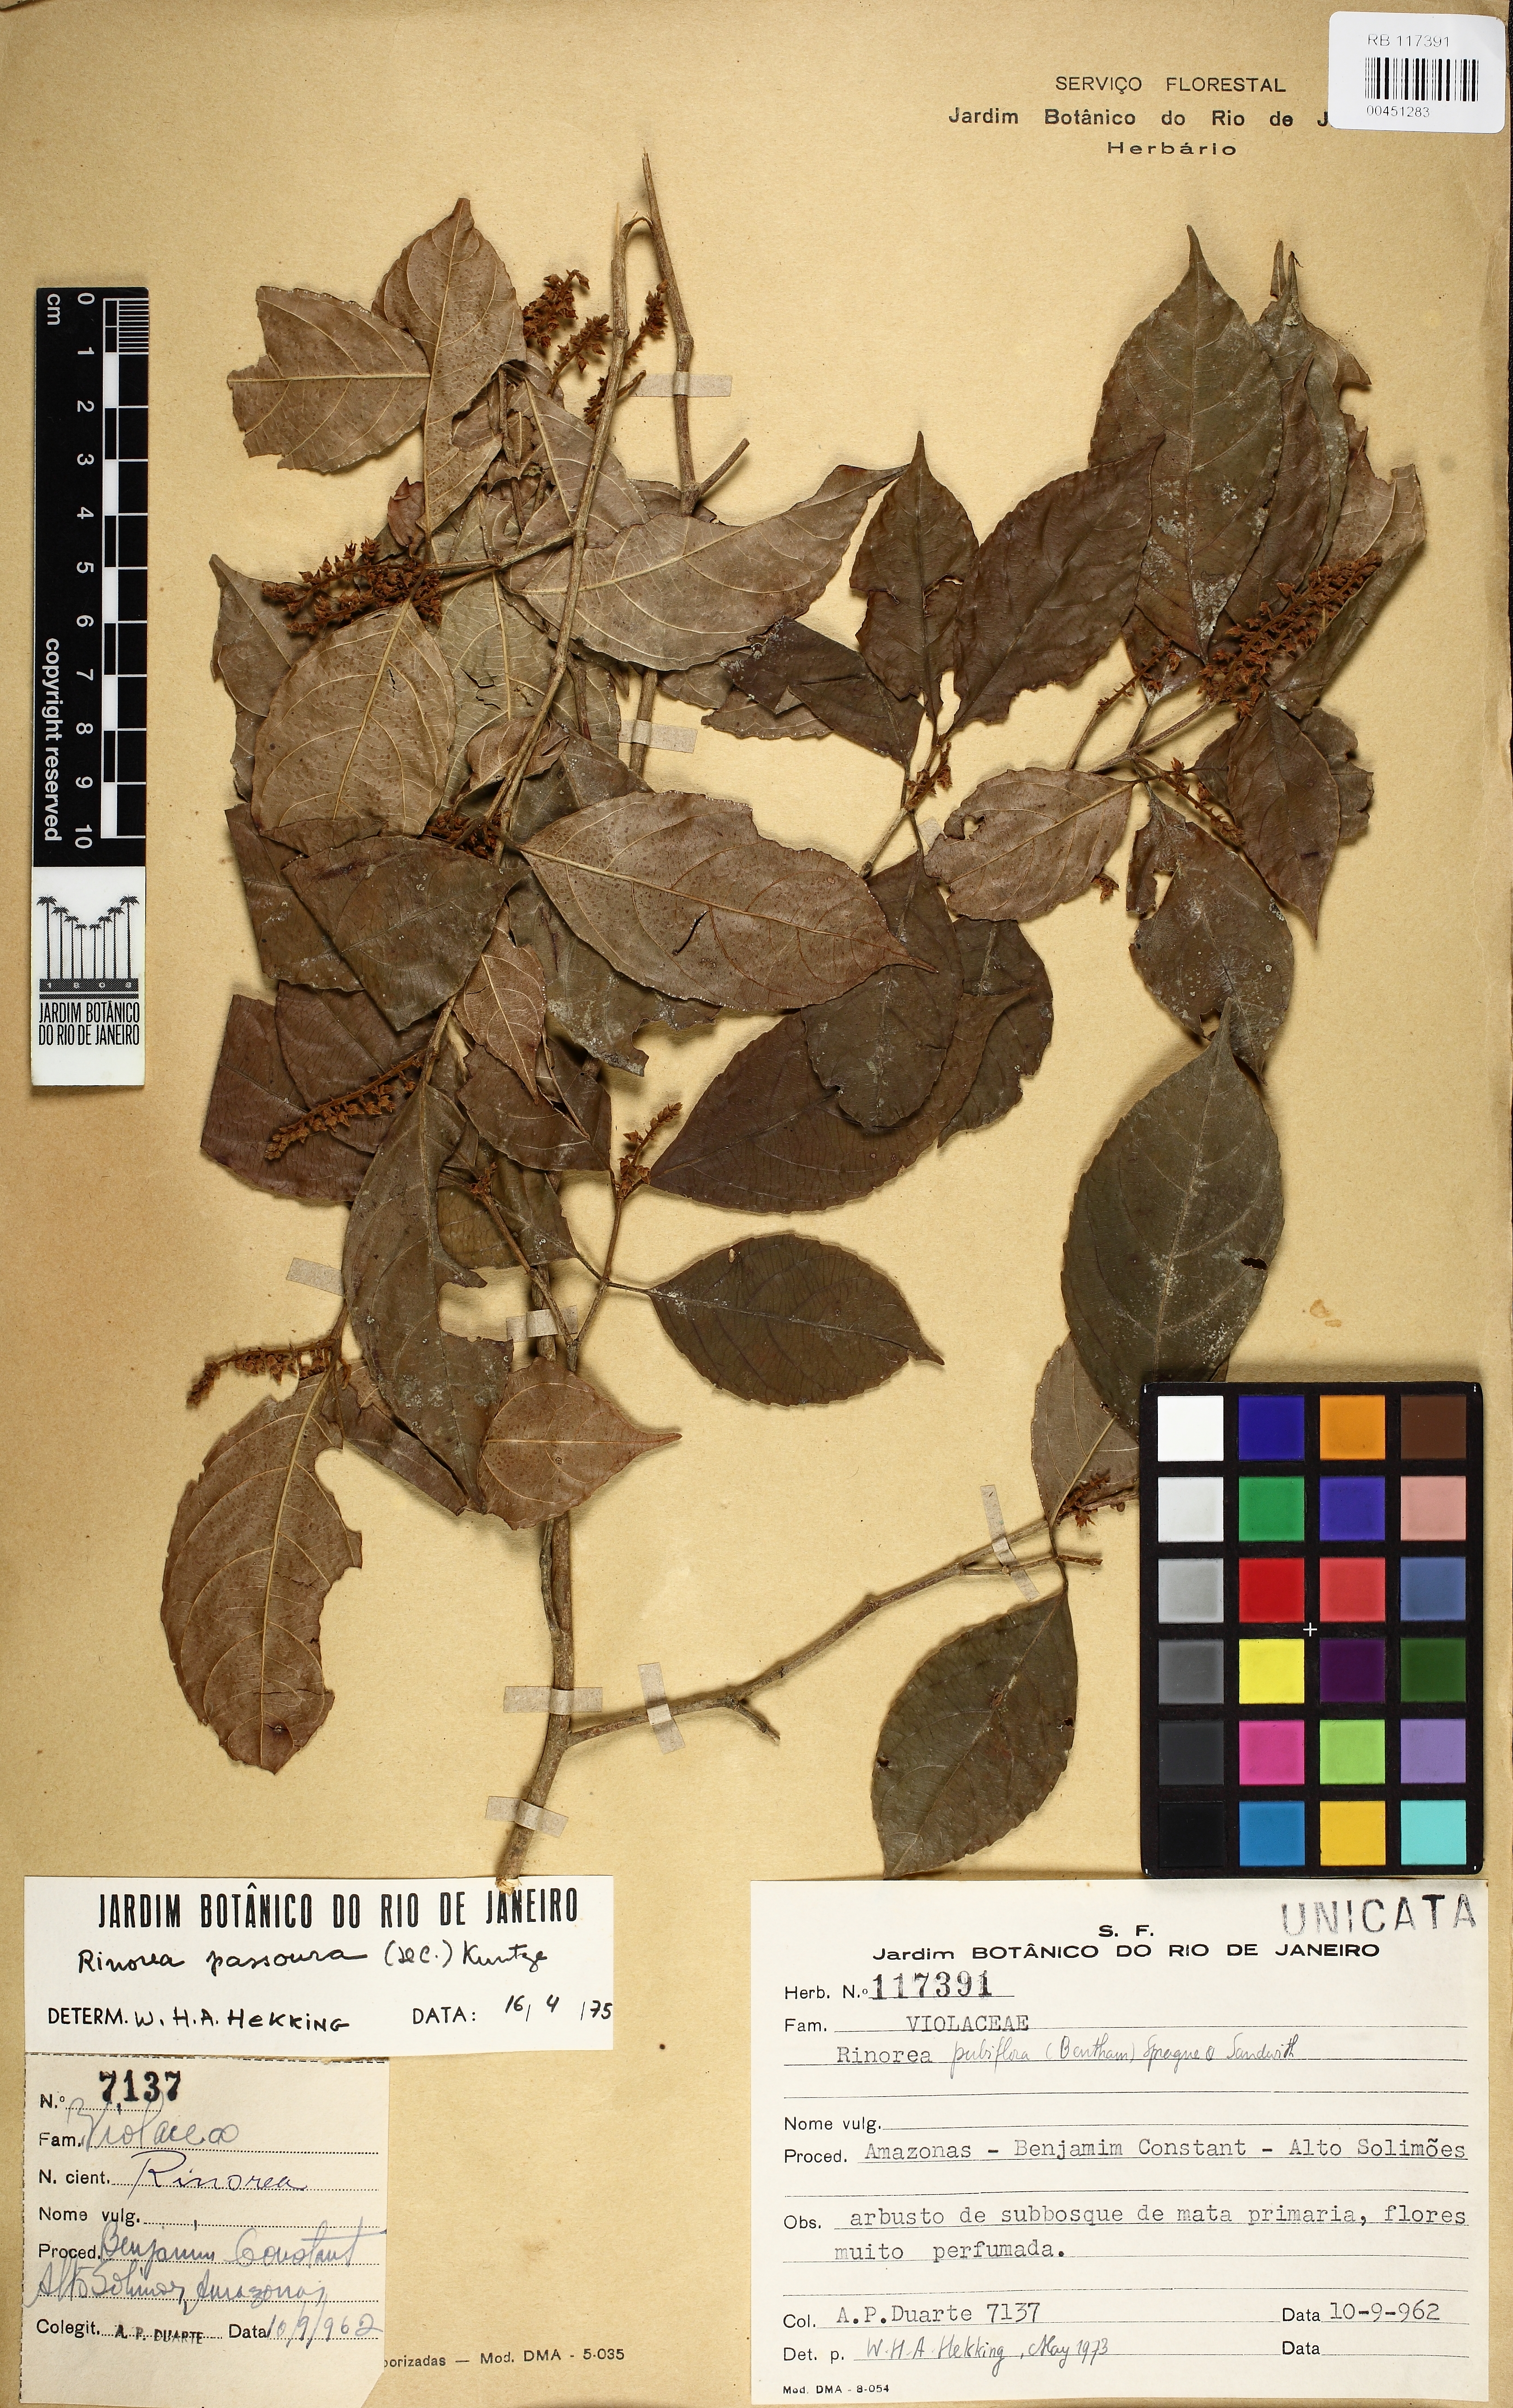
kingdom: Plantae
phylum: Tracheophyta
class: Magnoliopsida
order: Malpighiales
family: Violaceae
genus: Rinorea
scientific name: Rinorea pubiflora
